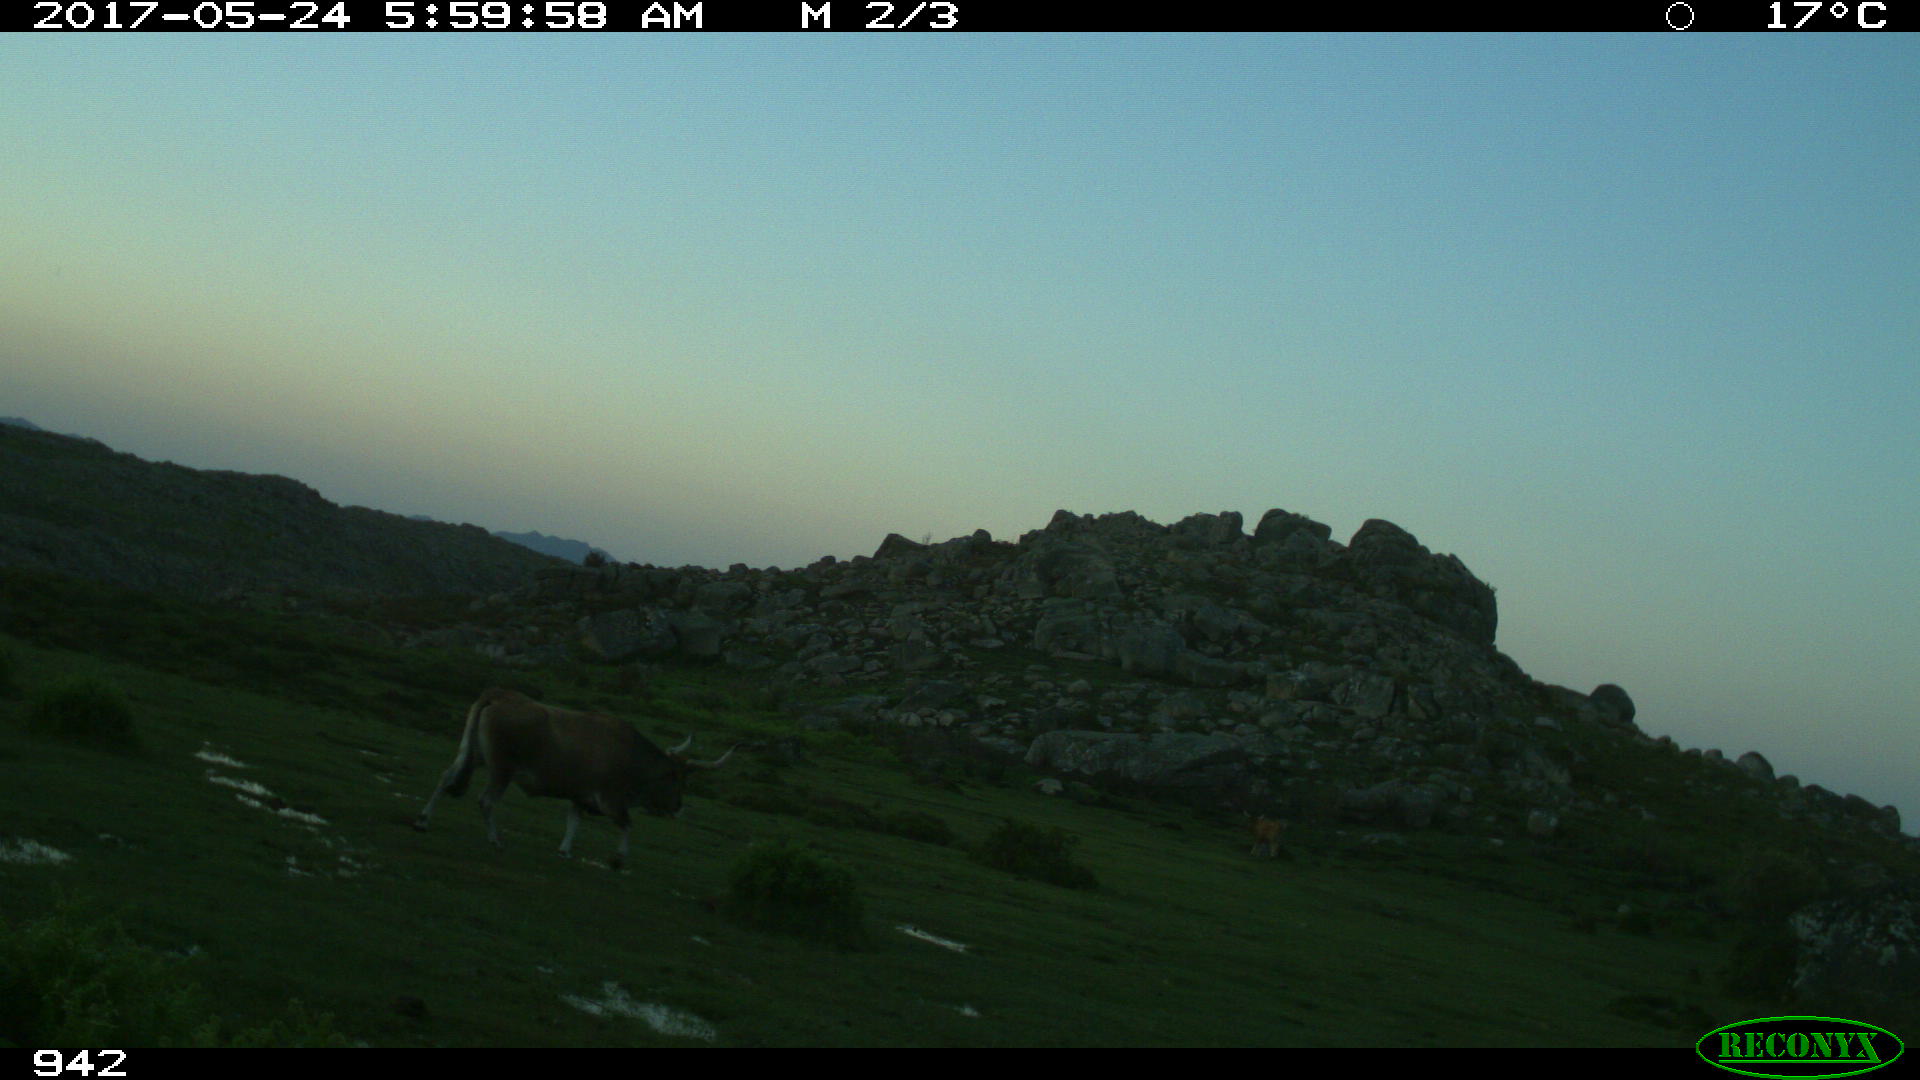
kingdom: Animalia
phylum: Chordata
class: Mammalia
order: Artiodactyla
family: Bovidae
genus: Bos
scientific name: Bos taurus
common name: Domesticated cattle
